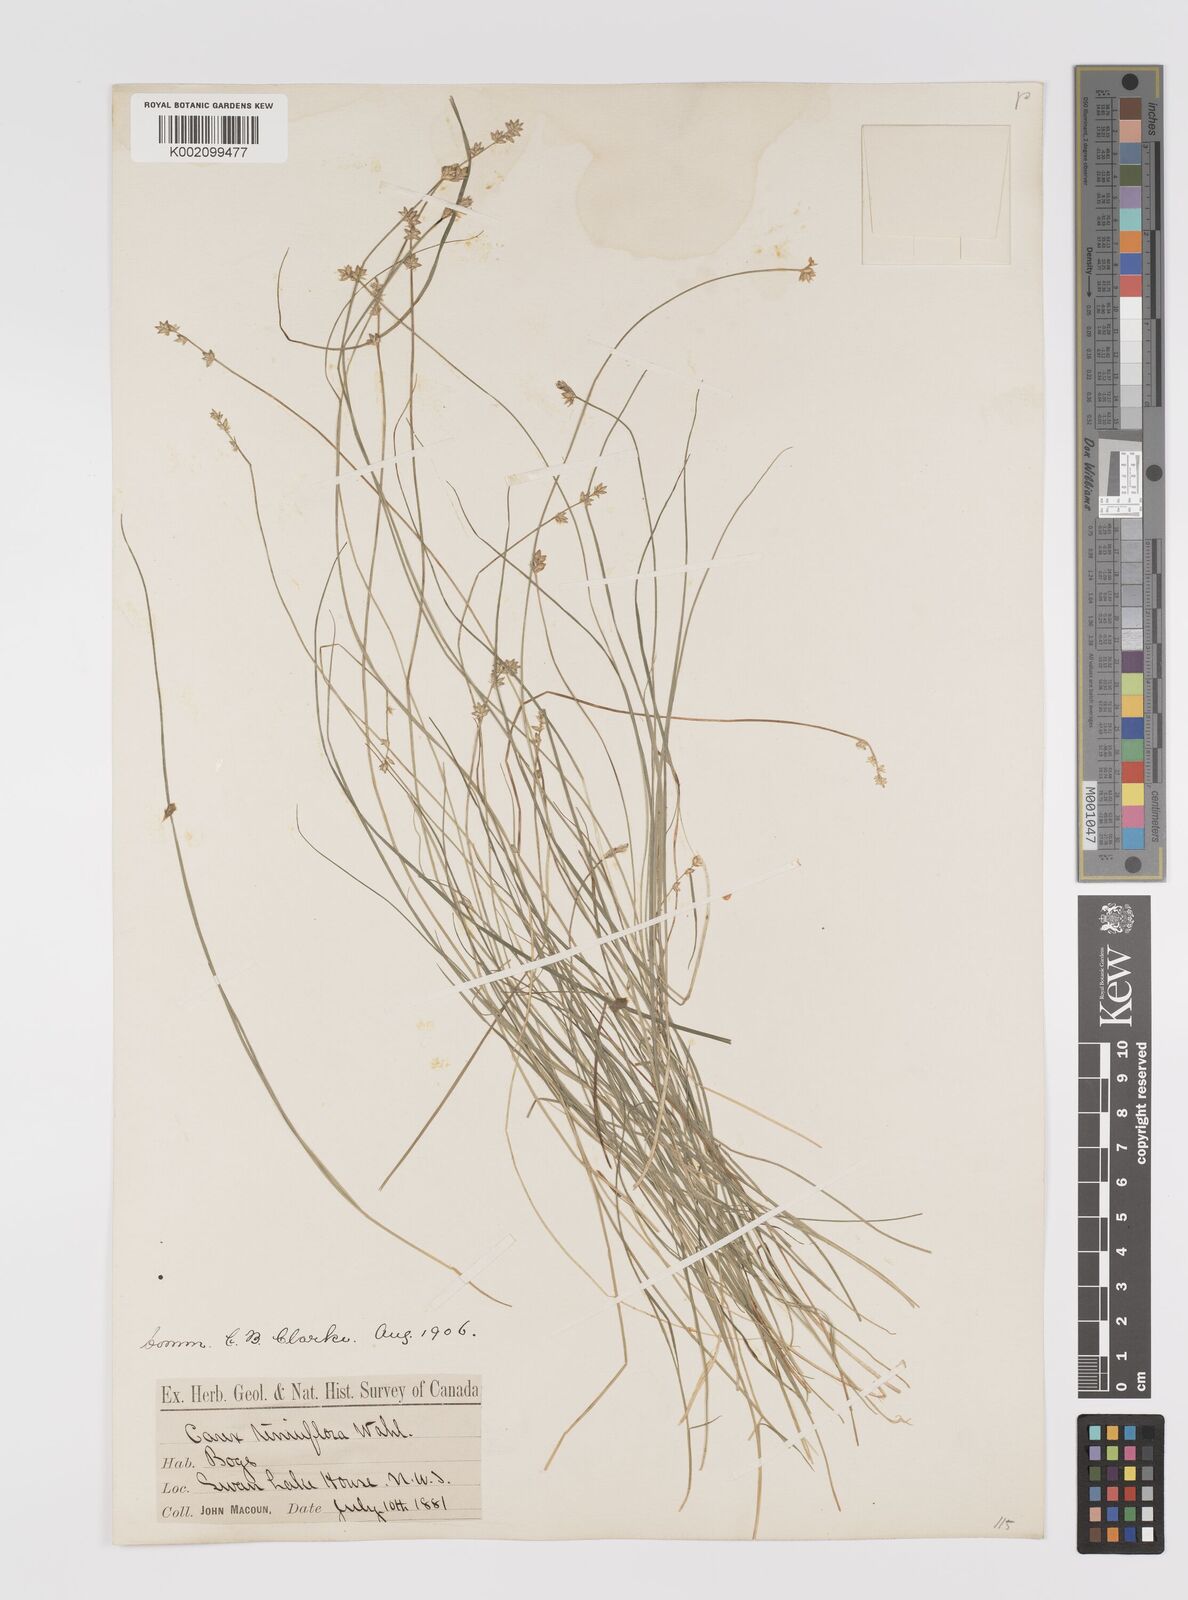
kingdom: Plantae
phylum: Tracheophyta
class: Liliopsida
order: Poales
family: Cyperaceae
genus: Carex
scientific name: Carex tenuiflora
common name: Sparse-flowered sedge
